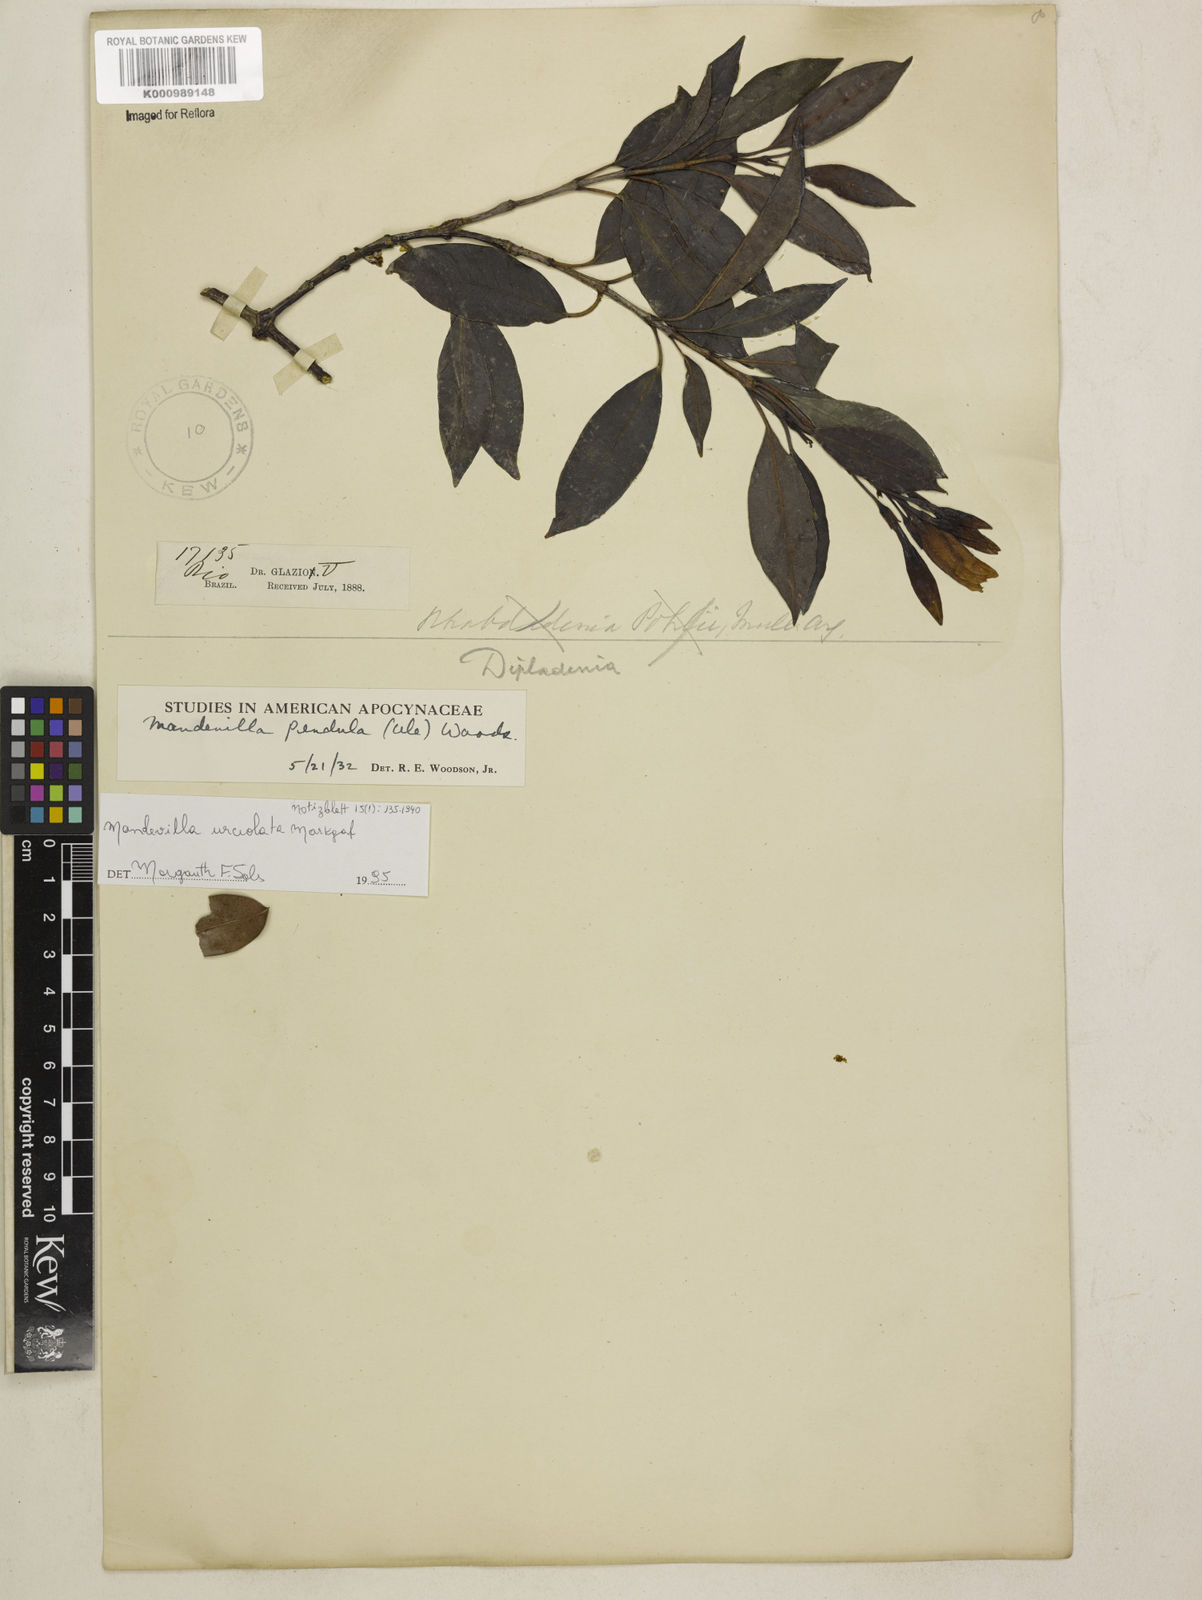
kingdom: Plantae
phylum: Tracheophyta
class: Magnoliopsida
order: Gentianales
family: Apocynaceae
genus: Mandevilla
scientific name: Mandevilla pendula
